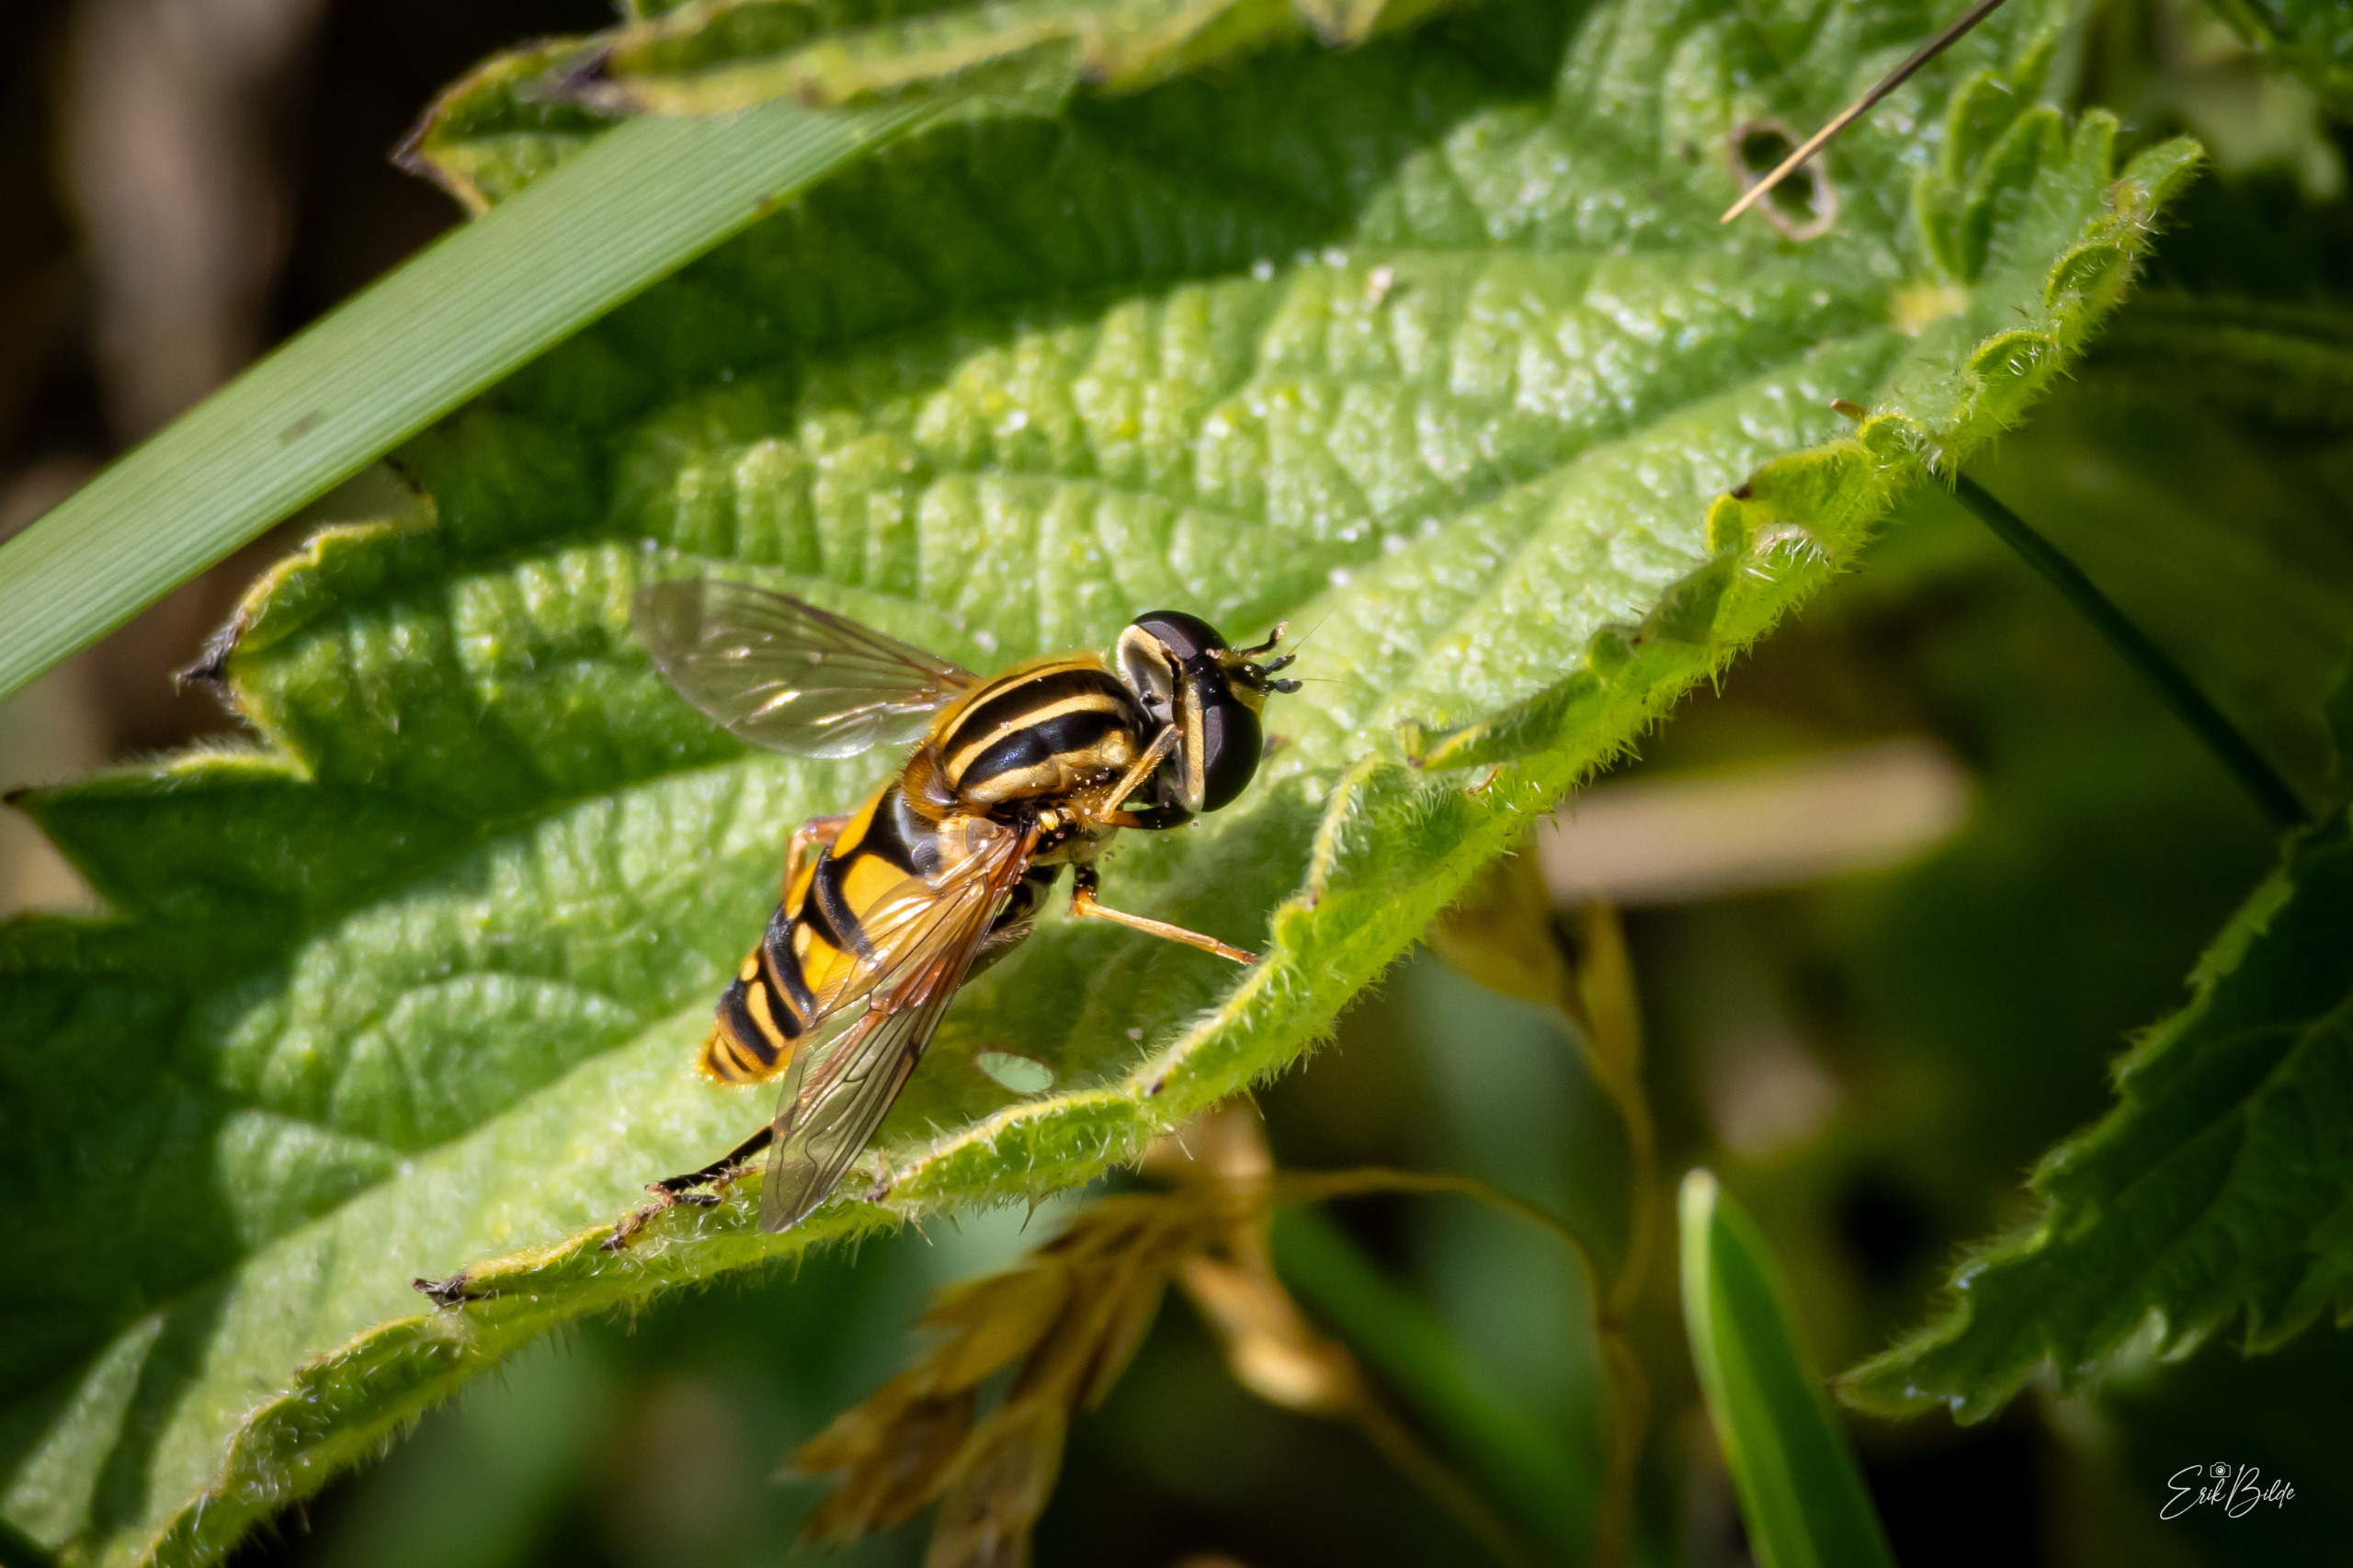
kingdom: Animalia
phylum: Arthropoda
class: Insecta
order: Diptera
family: Syrphidae
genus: Helophilus
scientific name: Helophilus pendulus
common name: Almindelig sumpsvirreflue
